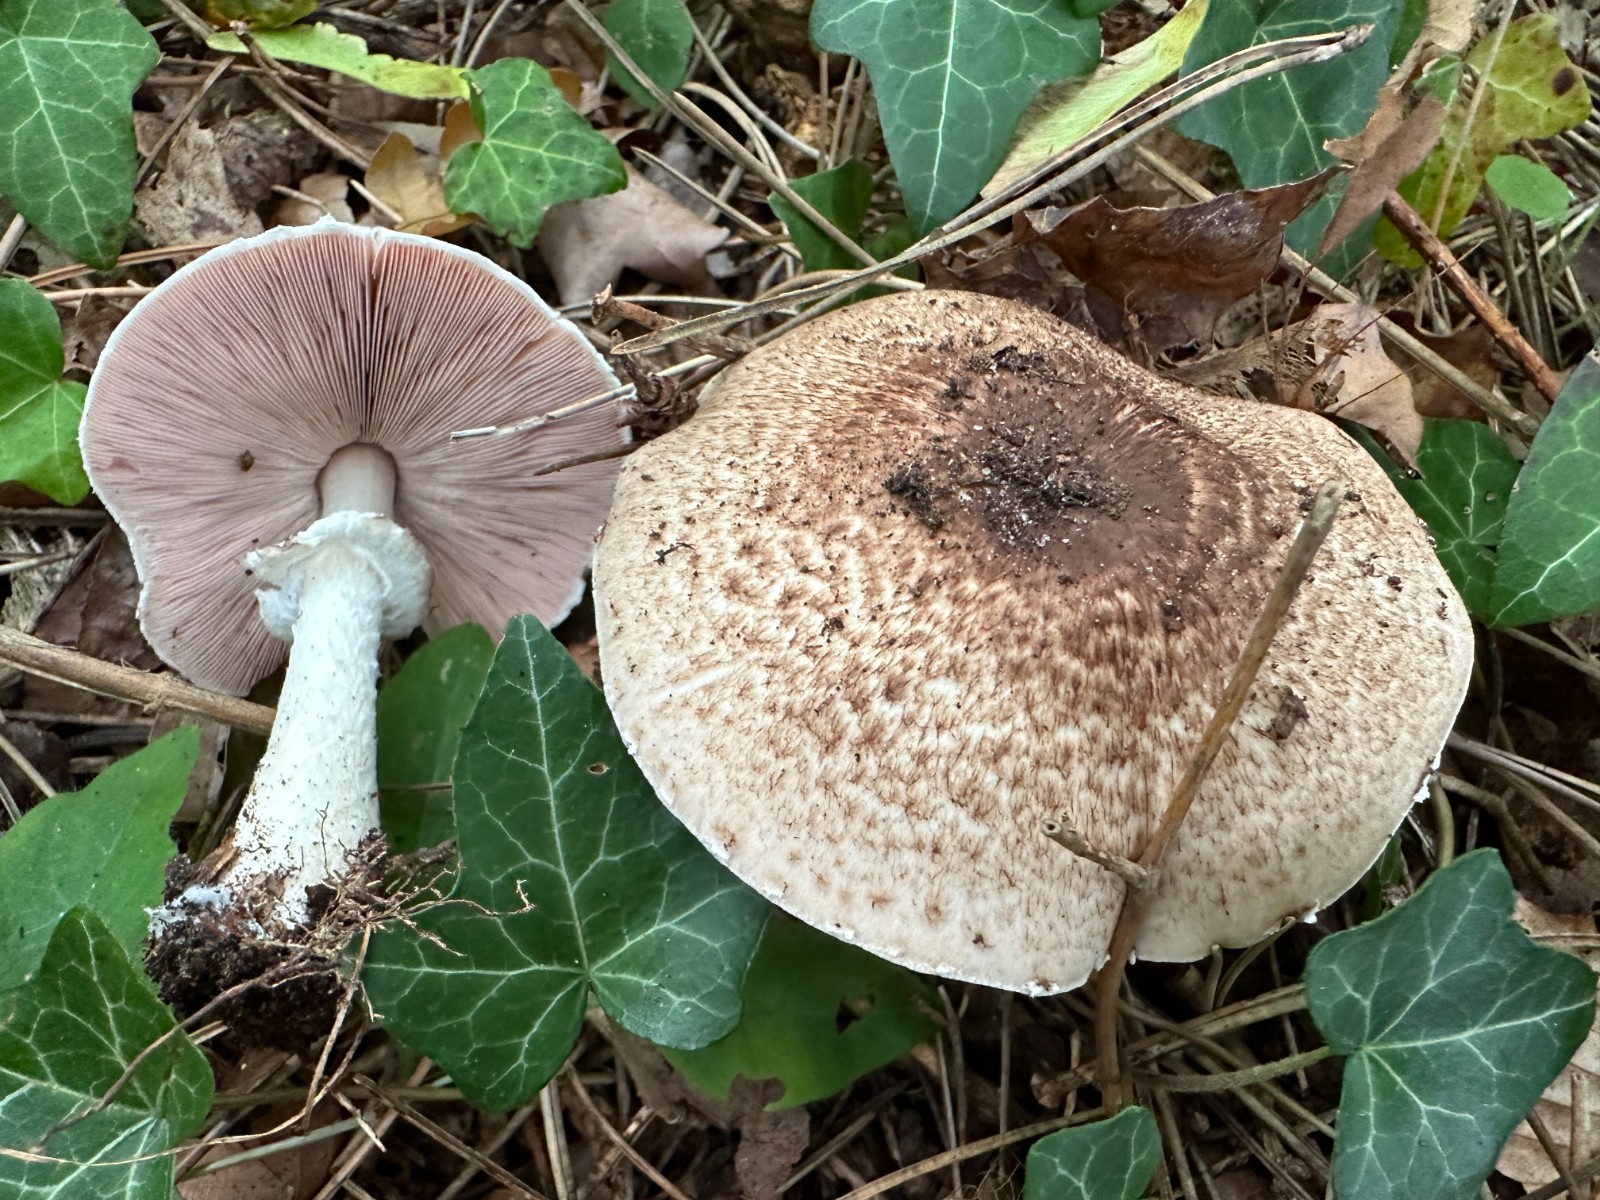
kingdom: Fungi
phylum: Basidiomycota
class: Agaricomycetes
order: Agaricales
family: Agaricaceae
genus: Agaricus
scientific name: Agaricus impudicus
